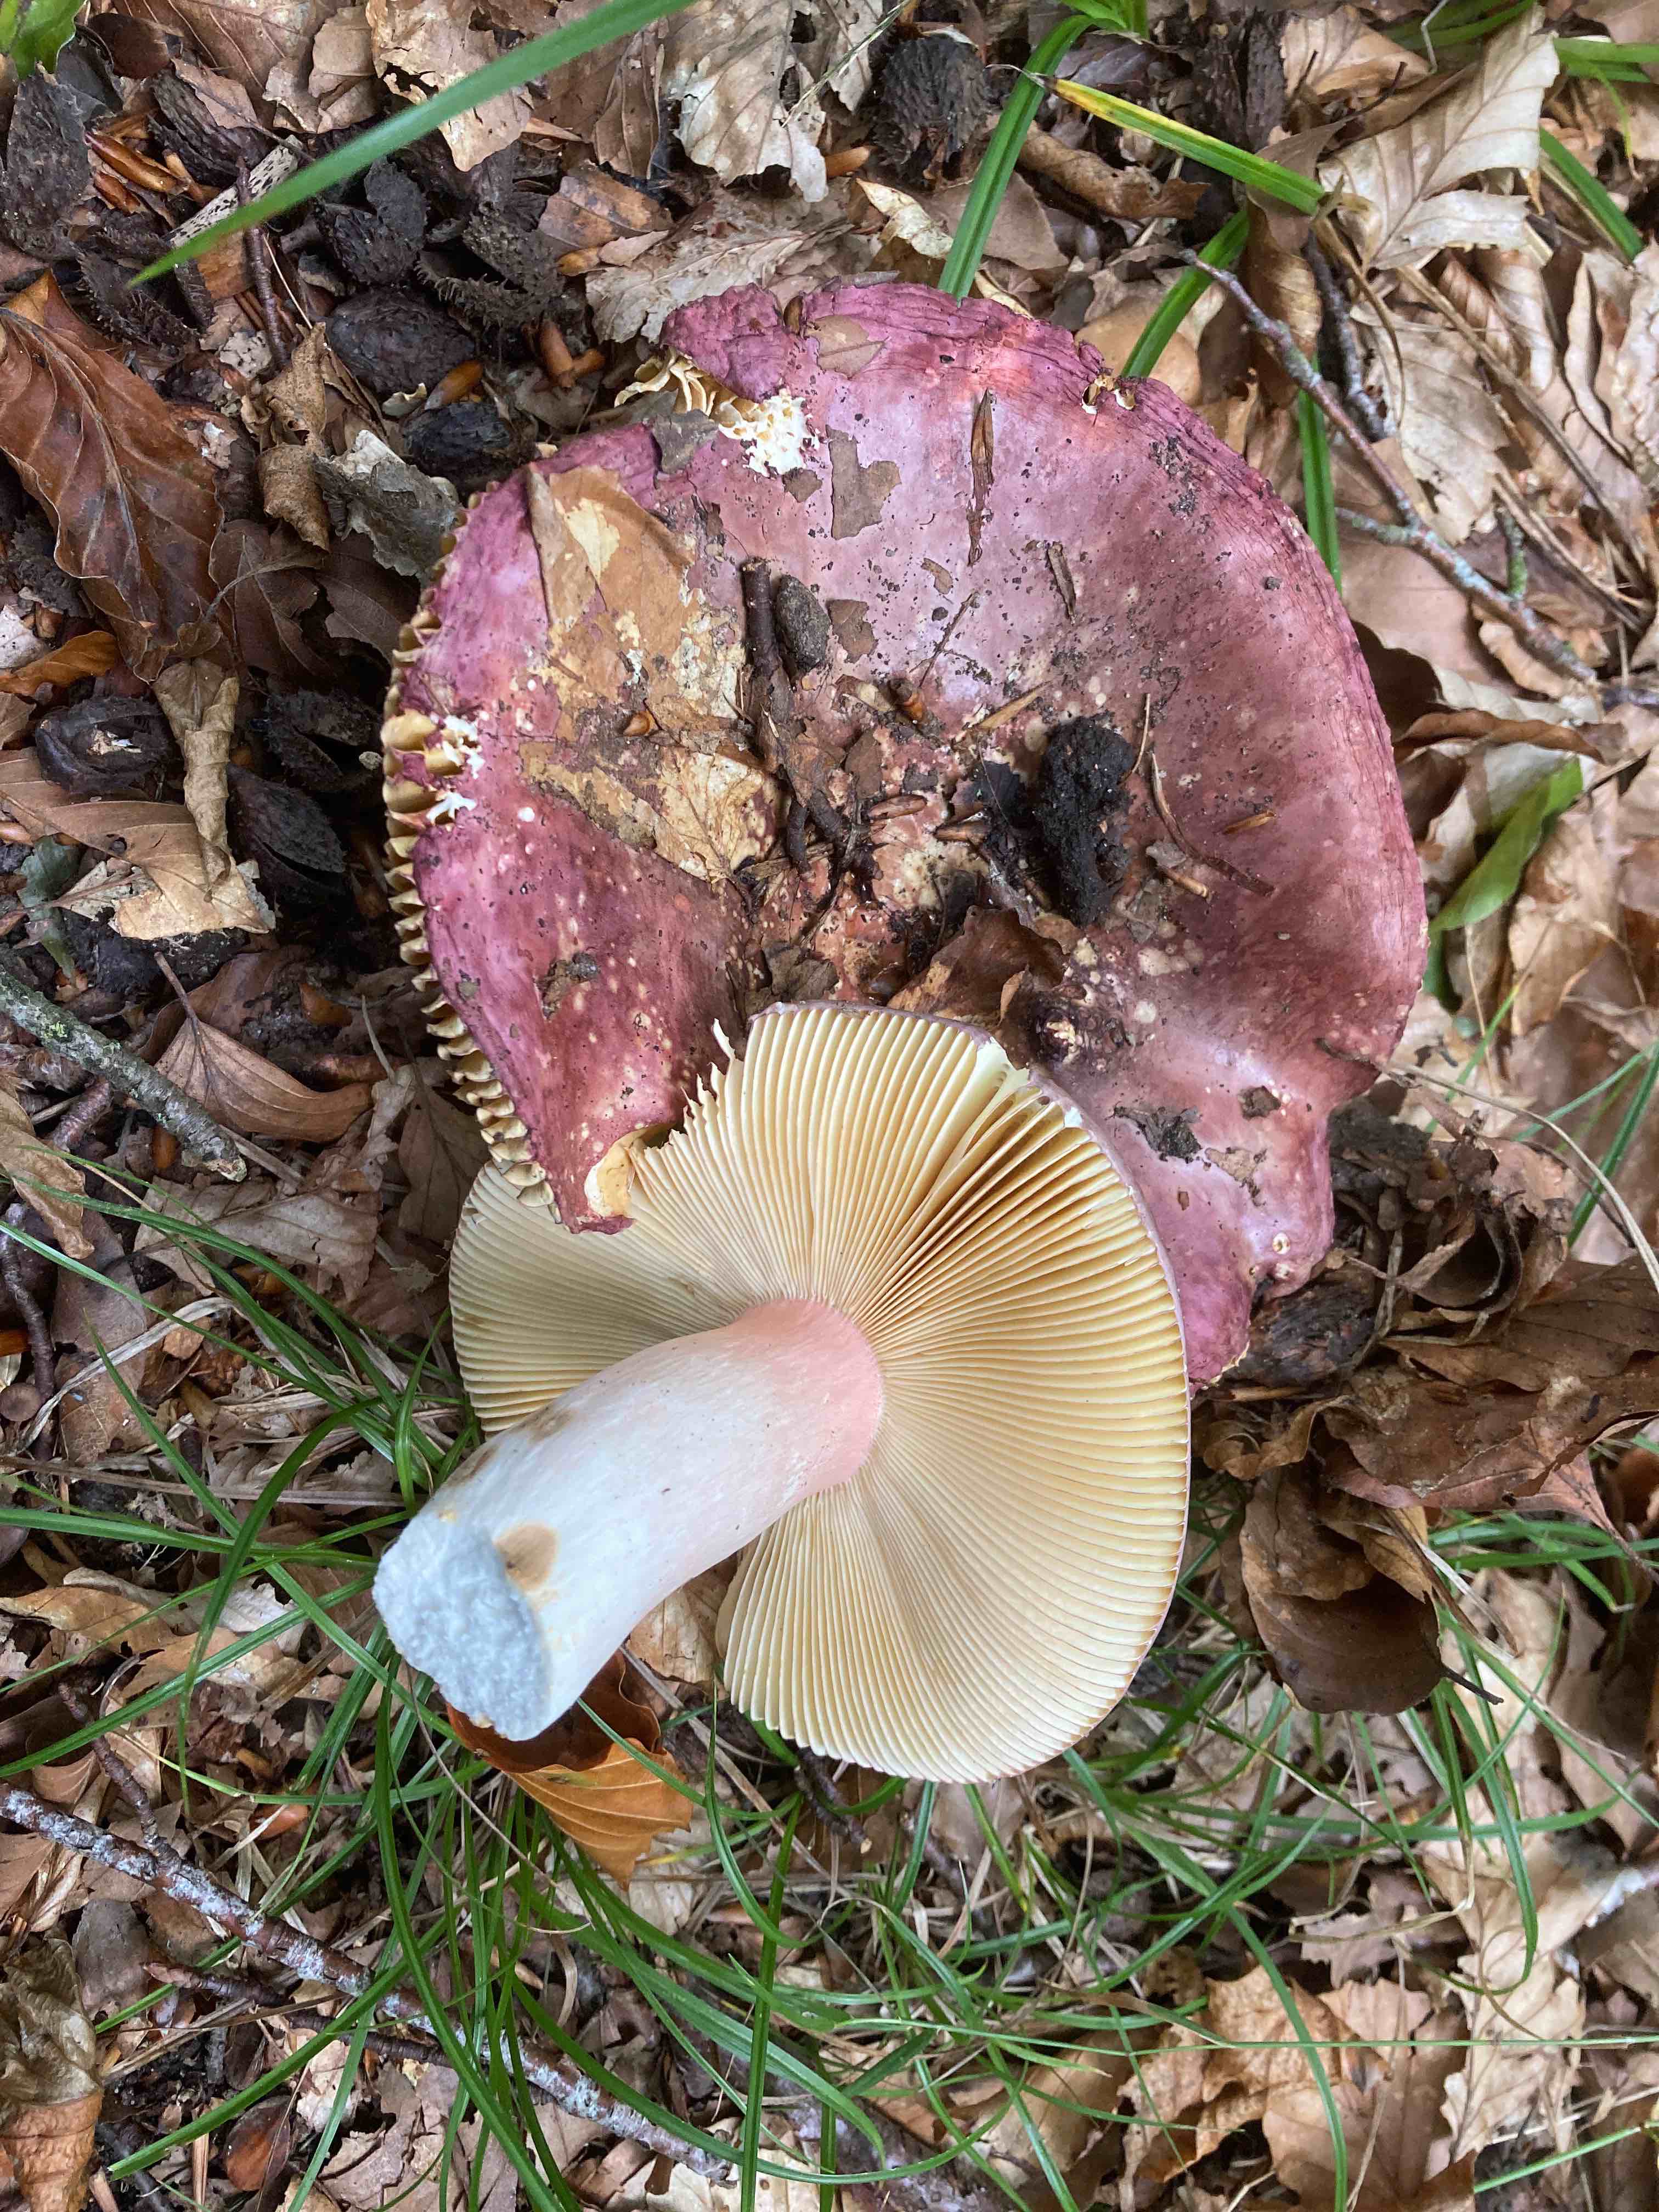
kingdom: Fungi
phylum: Basidiomycota
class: Agaricomycetes
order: Russulales
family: Russulaceae
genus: Russula
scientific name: Russula olivacea
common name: stor skørhat
